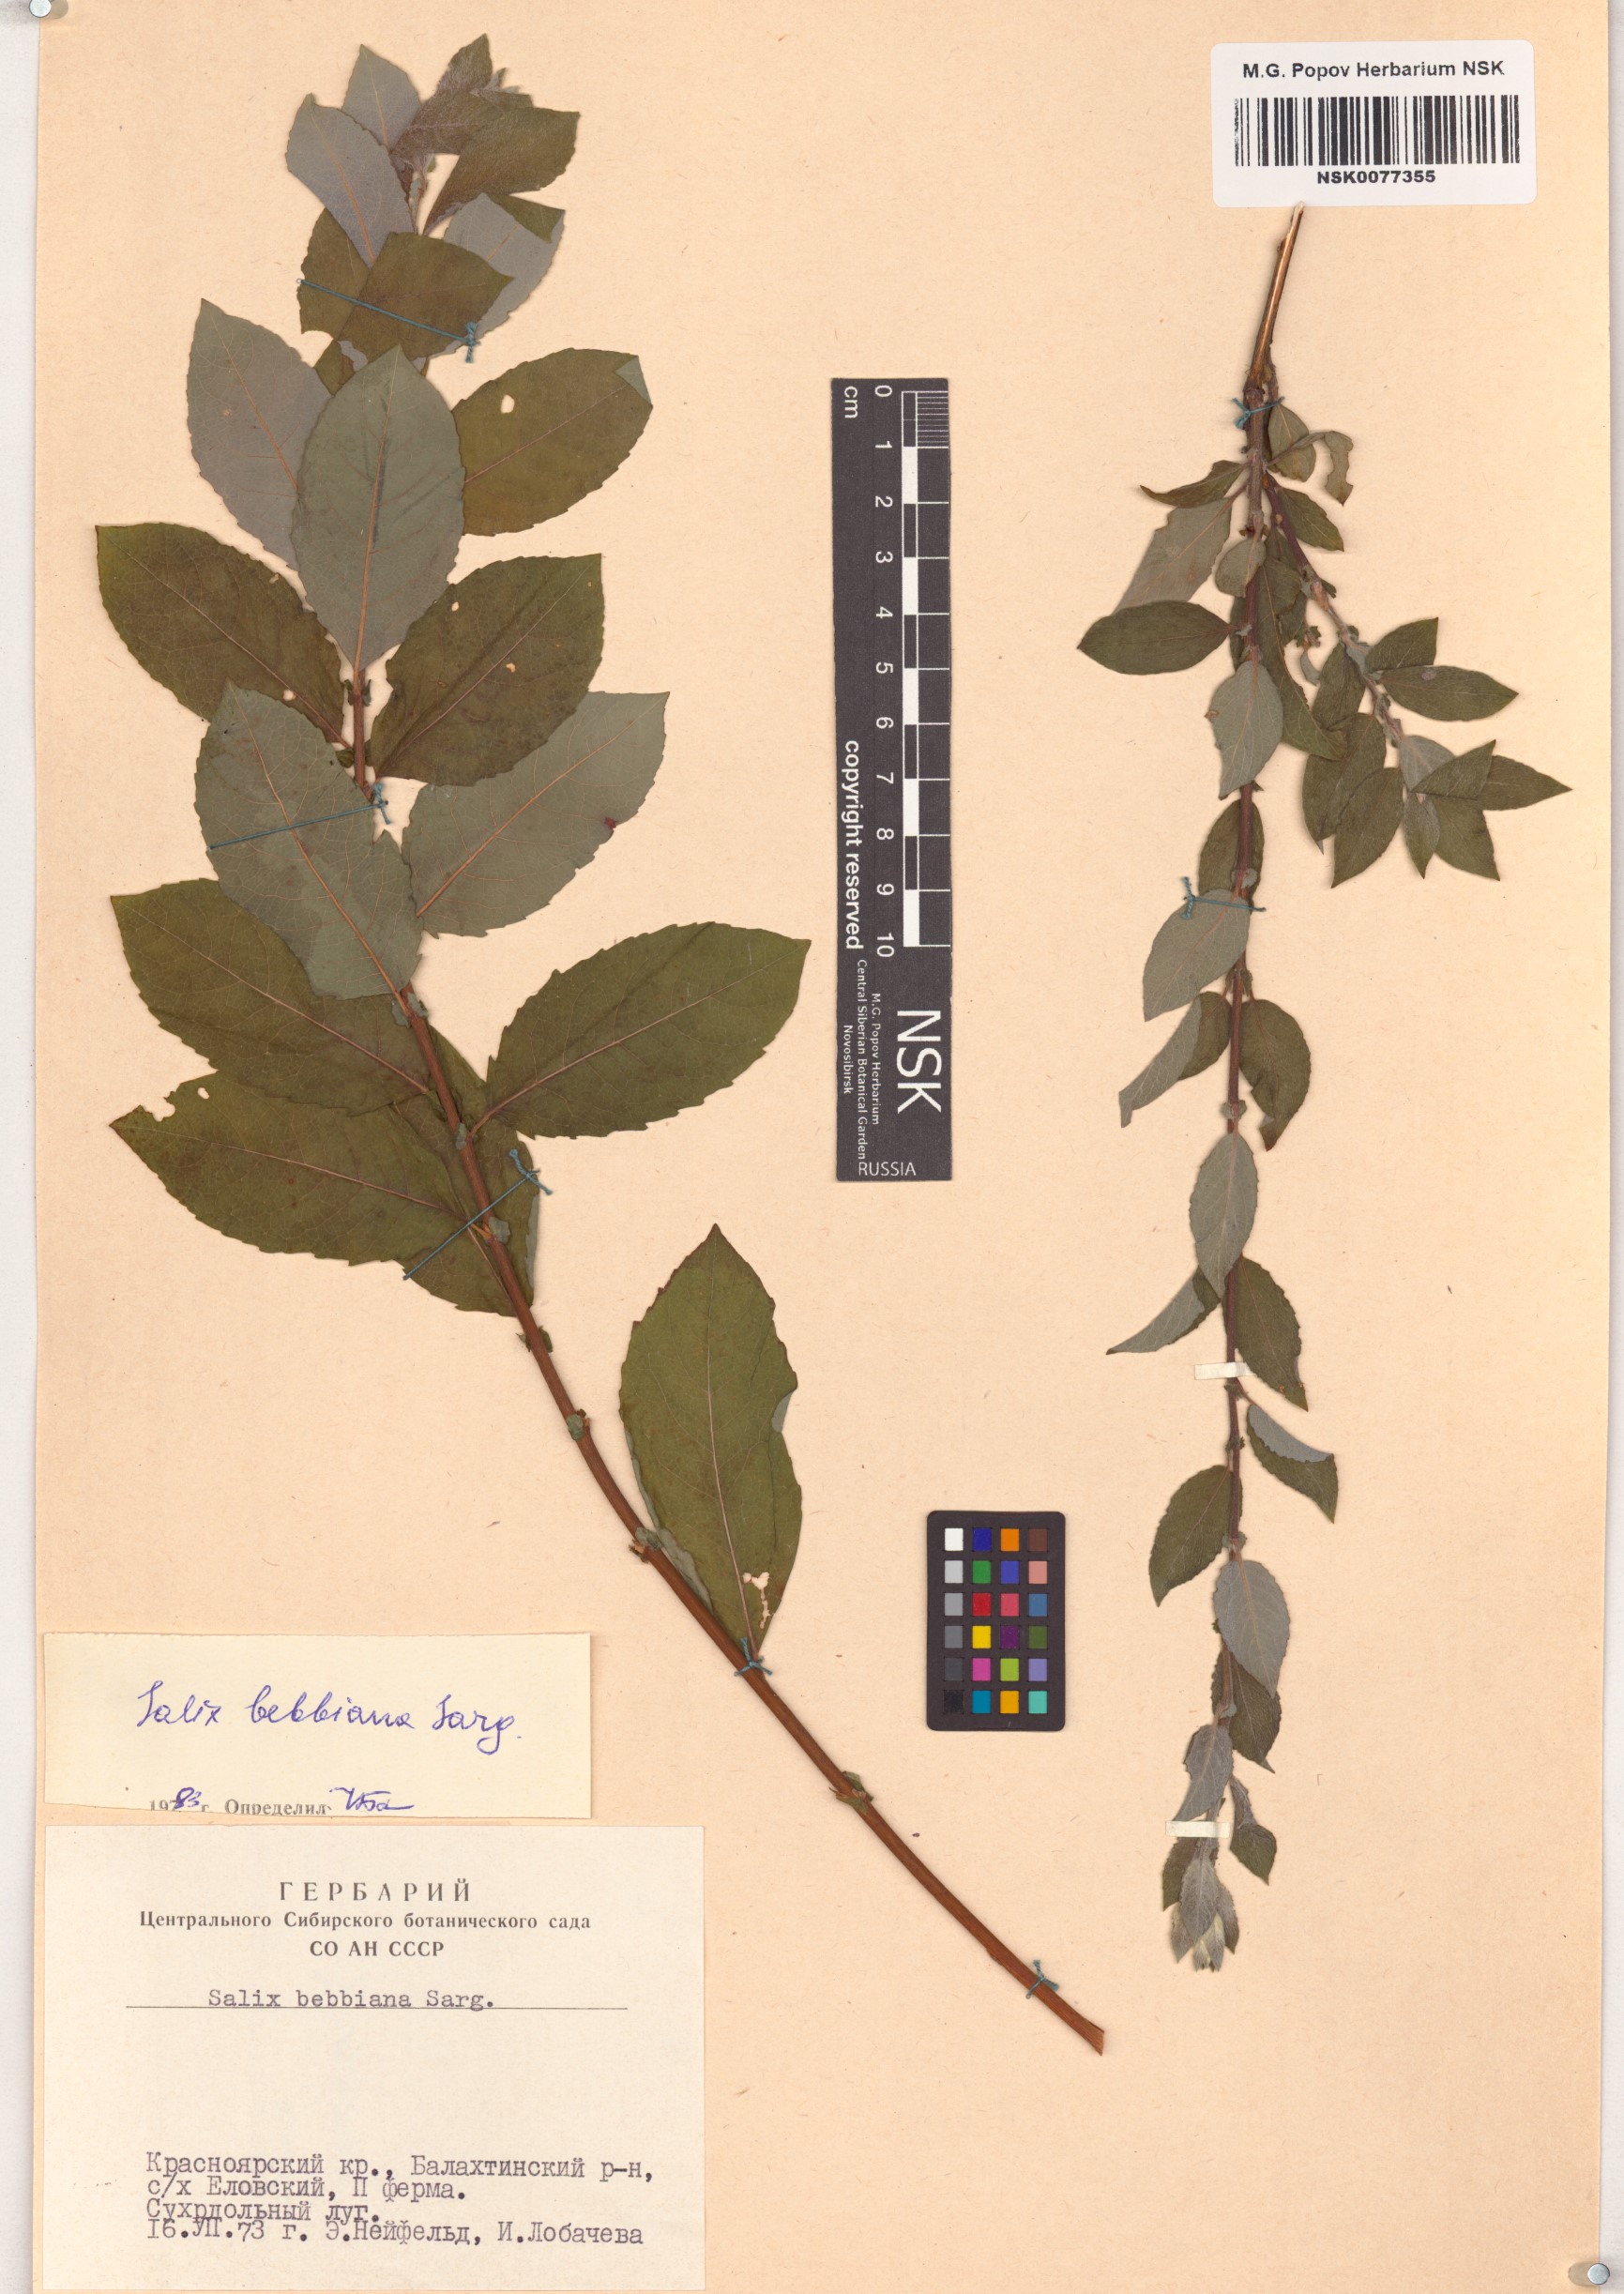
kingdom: Plantae
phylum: Tracheophyta
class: Magnoliopsida
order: Malpighiales
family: Salicaceae
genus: Salix
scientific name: Salix bebbiana
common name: Bebb's willow
